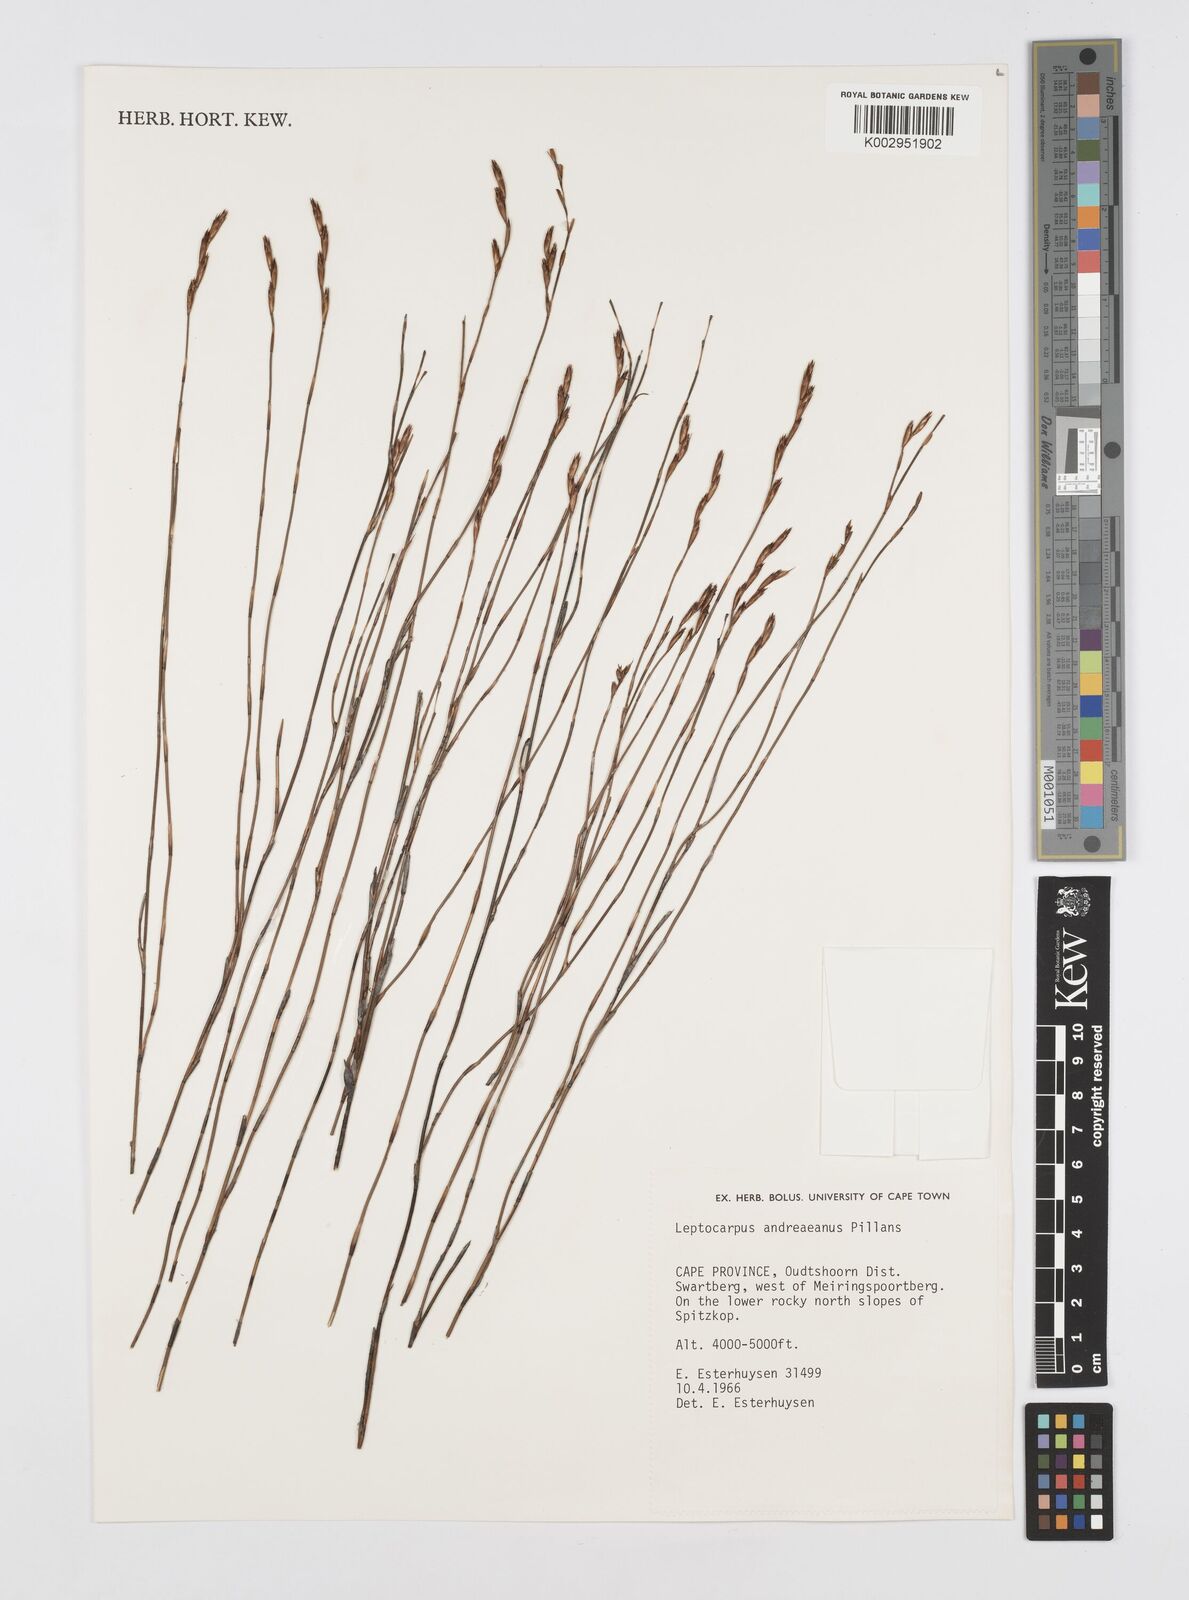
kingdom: Plantae
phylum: Tracheophyta
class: Liliopsida
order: Poales
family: Restionaceae
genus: Restio
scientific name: Restio andreaeanus
